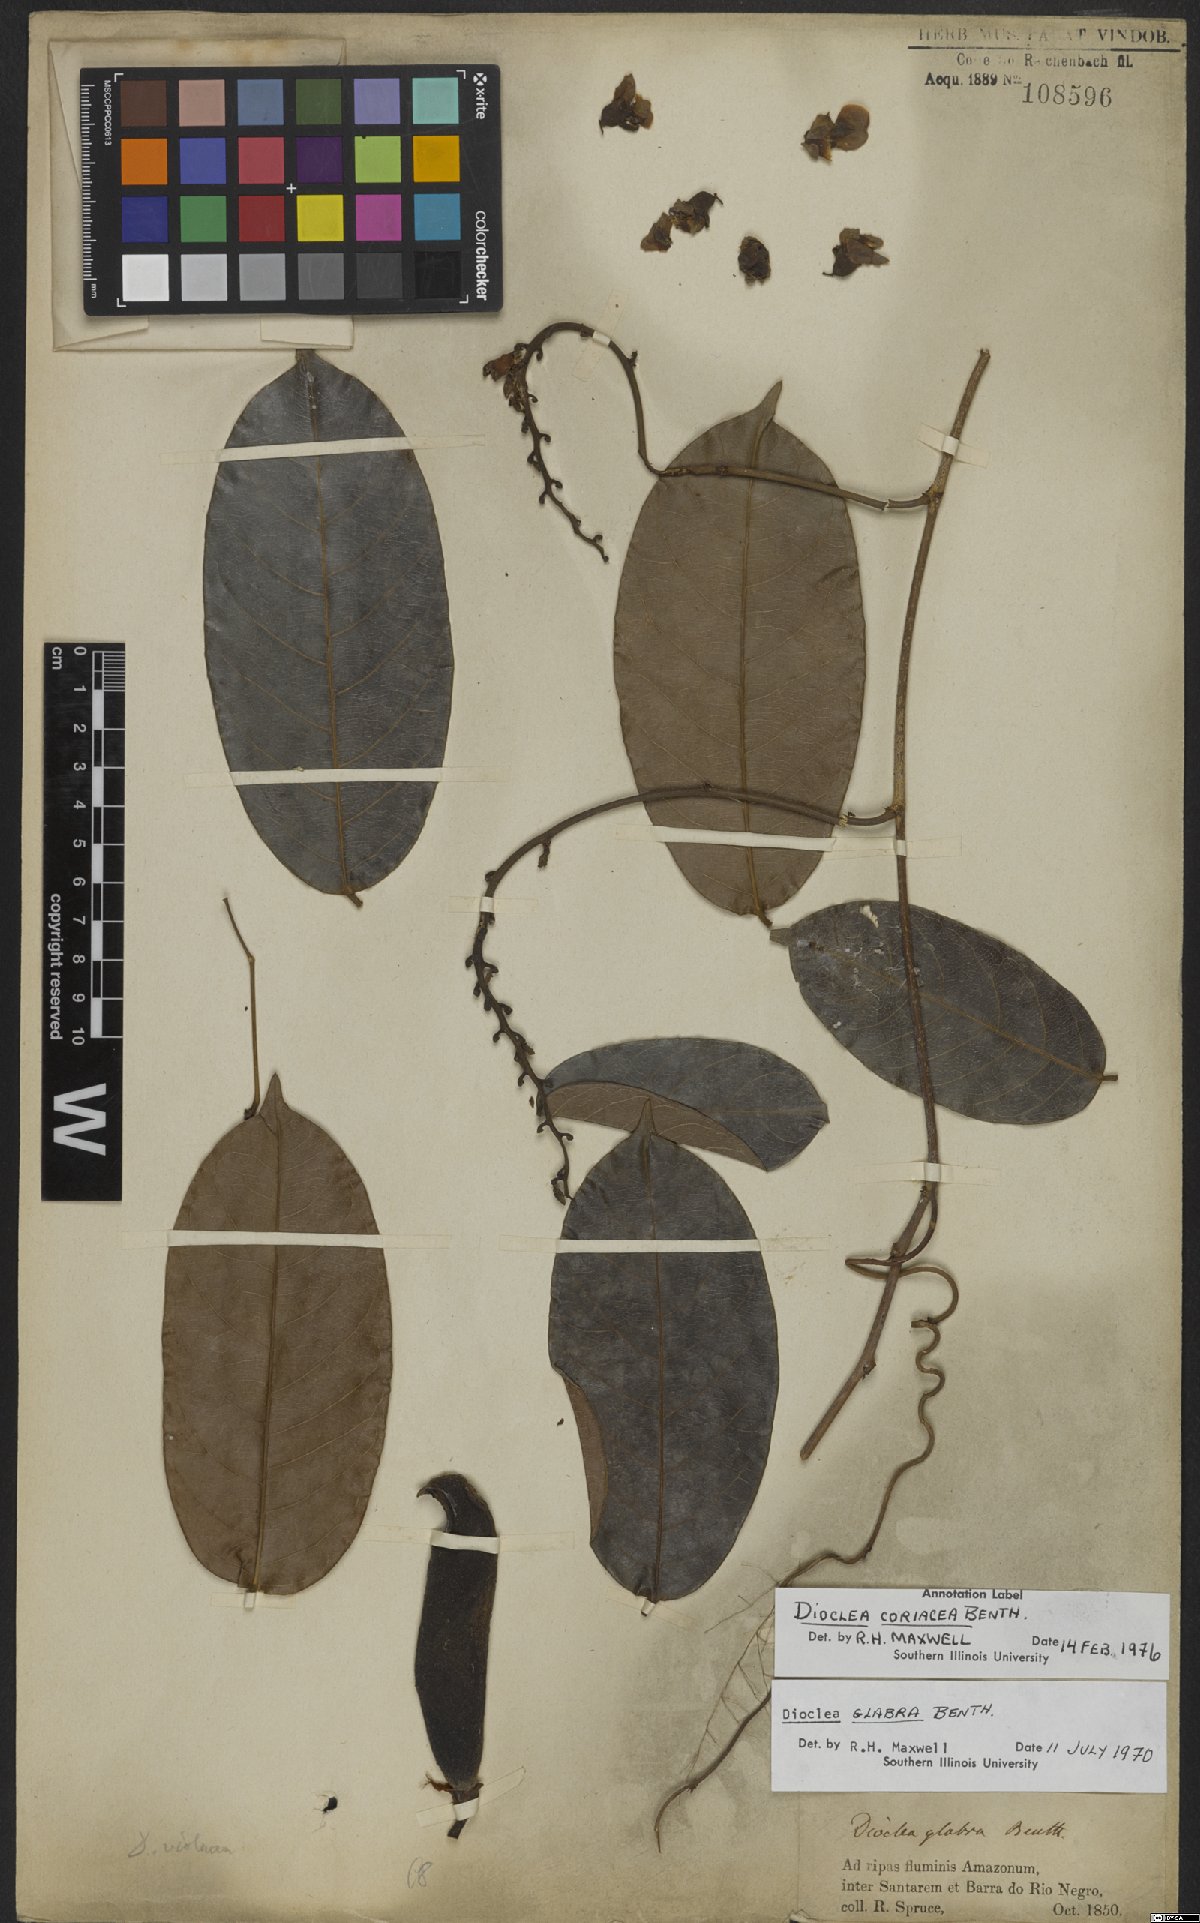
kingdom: Plantae
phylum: Tracheophyta
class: Magnoliopsida
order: Fabales
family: Fabaceae
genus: Macropsychanthus
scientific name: Macropsychanthus coriaceus
